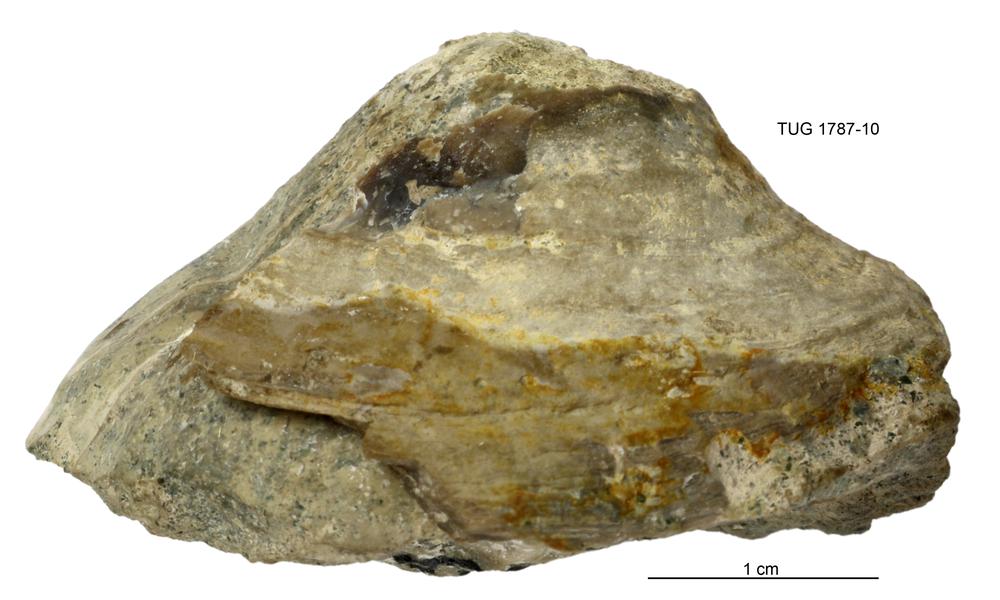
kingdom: Animalia
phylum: Mollusca
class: Monoplacophora
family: Metoptomatidae
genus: Metoptoma
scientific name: Metoptoma
